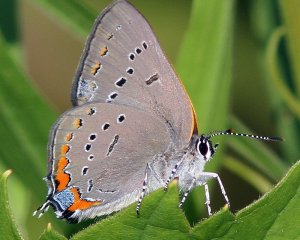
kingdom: Animalia
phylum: Arthropoda
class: Insecta
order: Lepidoptera
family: Lycaenidae
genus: Strymon
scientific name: Strymon acadica
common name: Acadian Hairstreak
